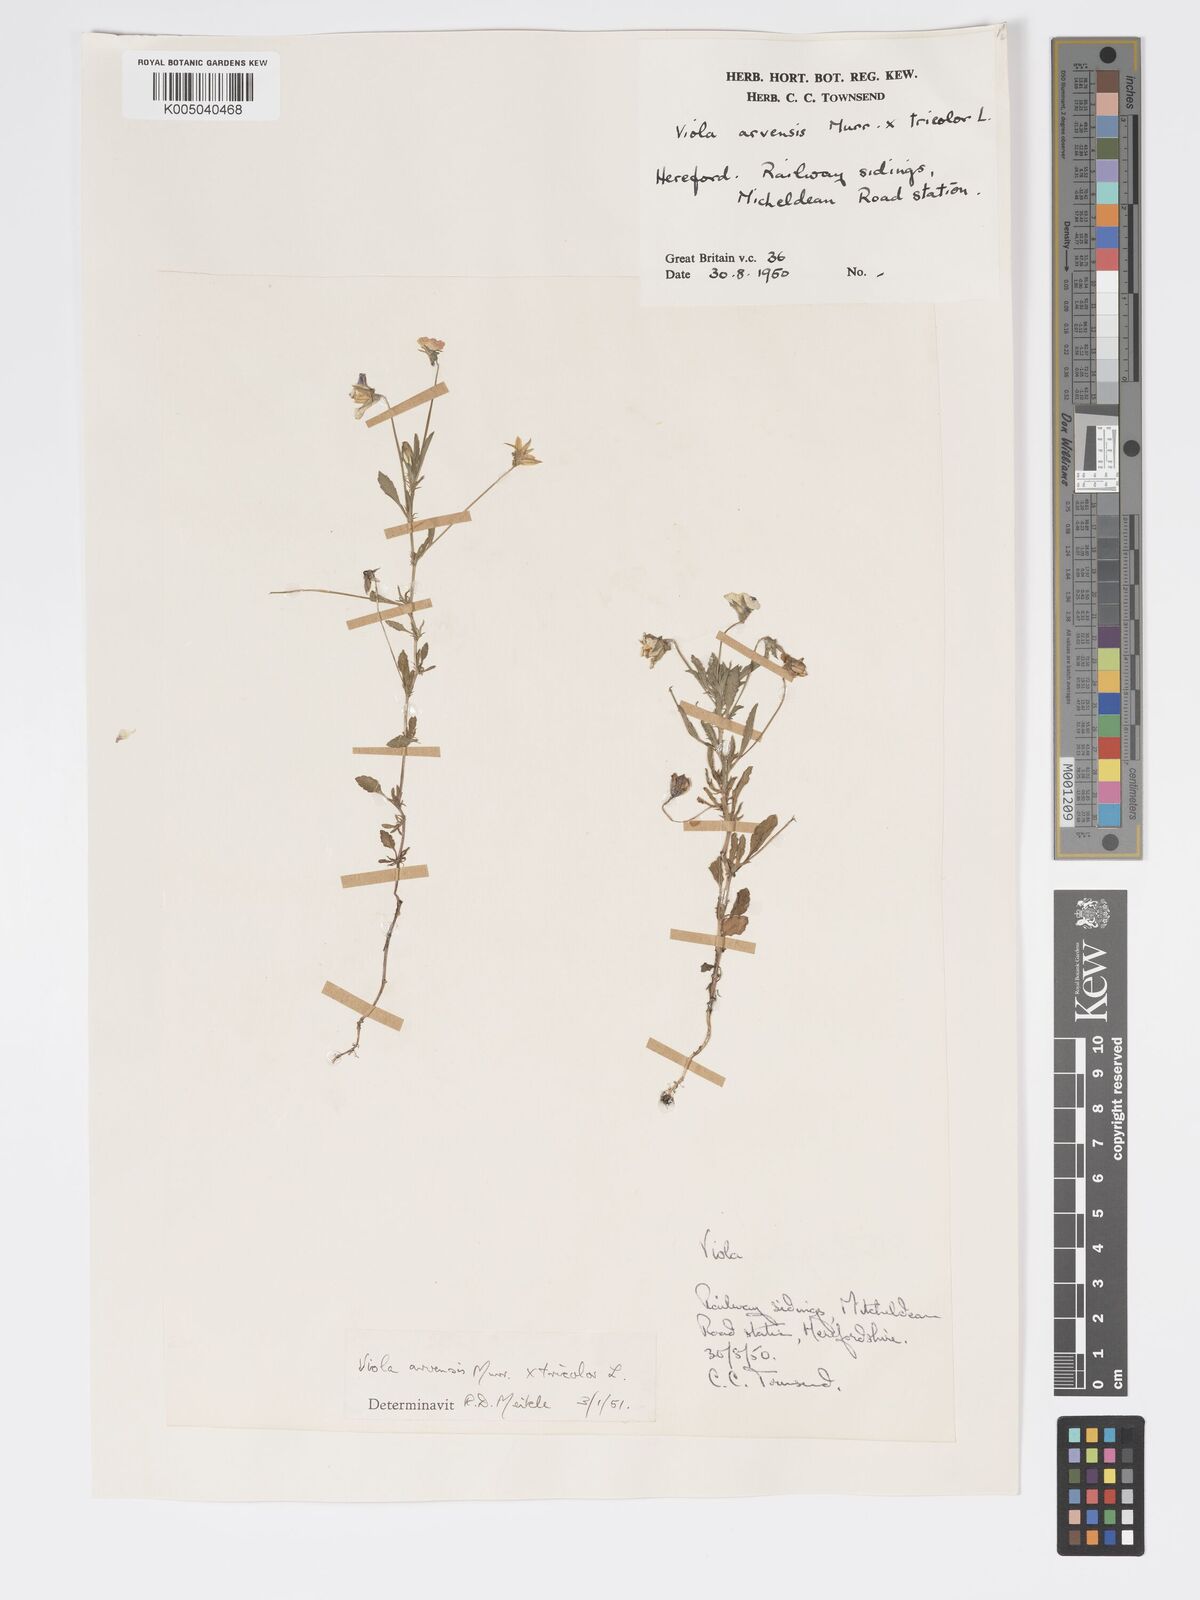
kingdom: Plantae
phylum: Tracheophyta
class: Magnoliopsida
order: Malpighiales
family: Violaceae
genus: Viola
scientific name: Viola arvensis
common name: Field pansy
